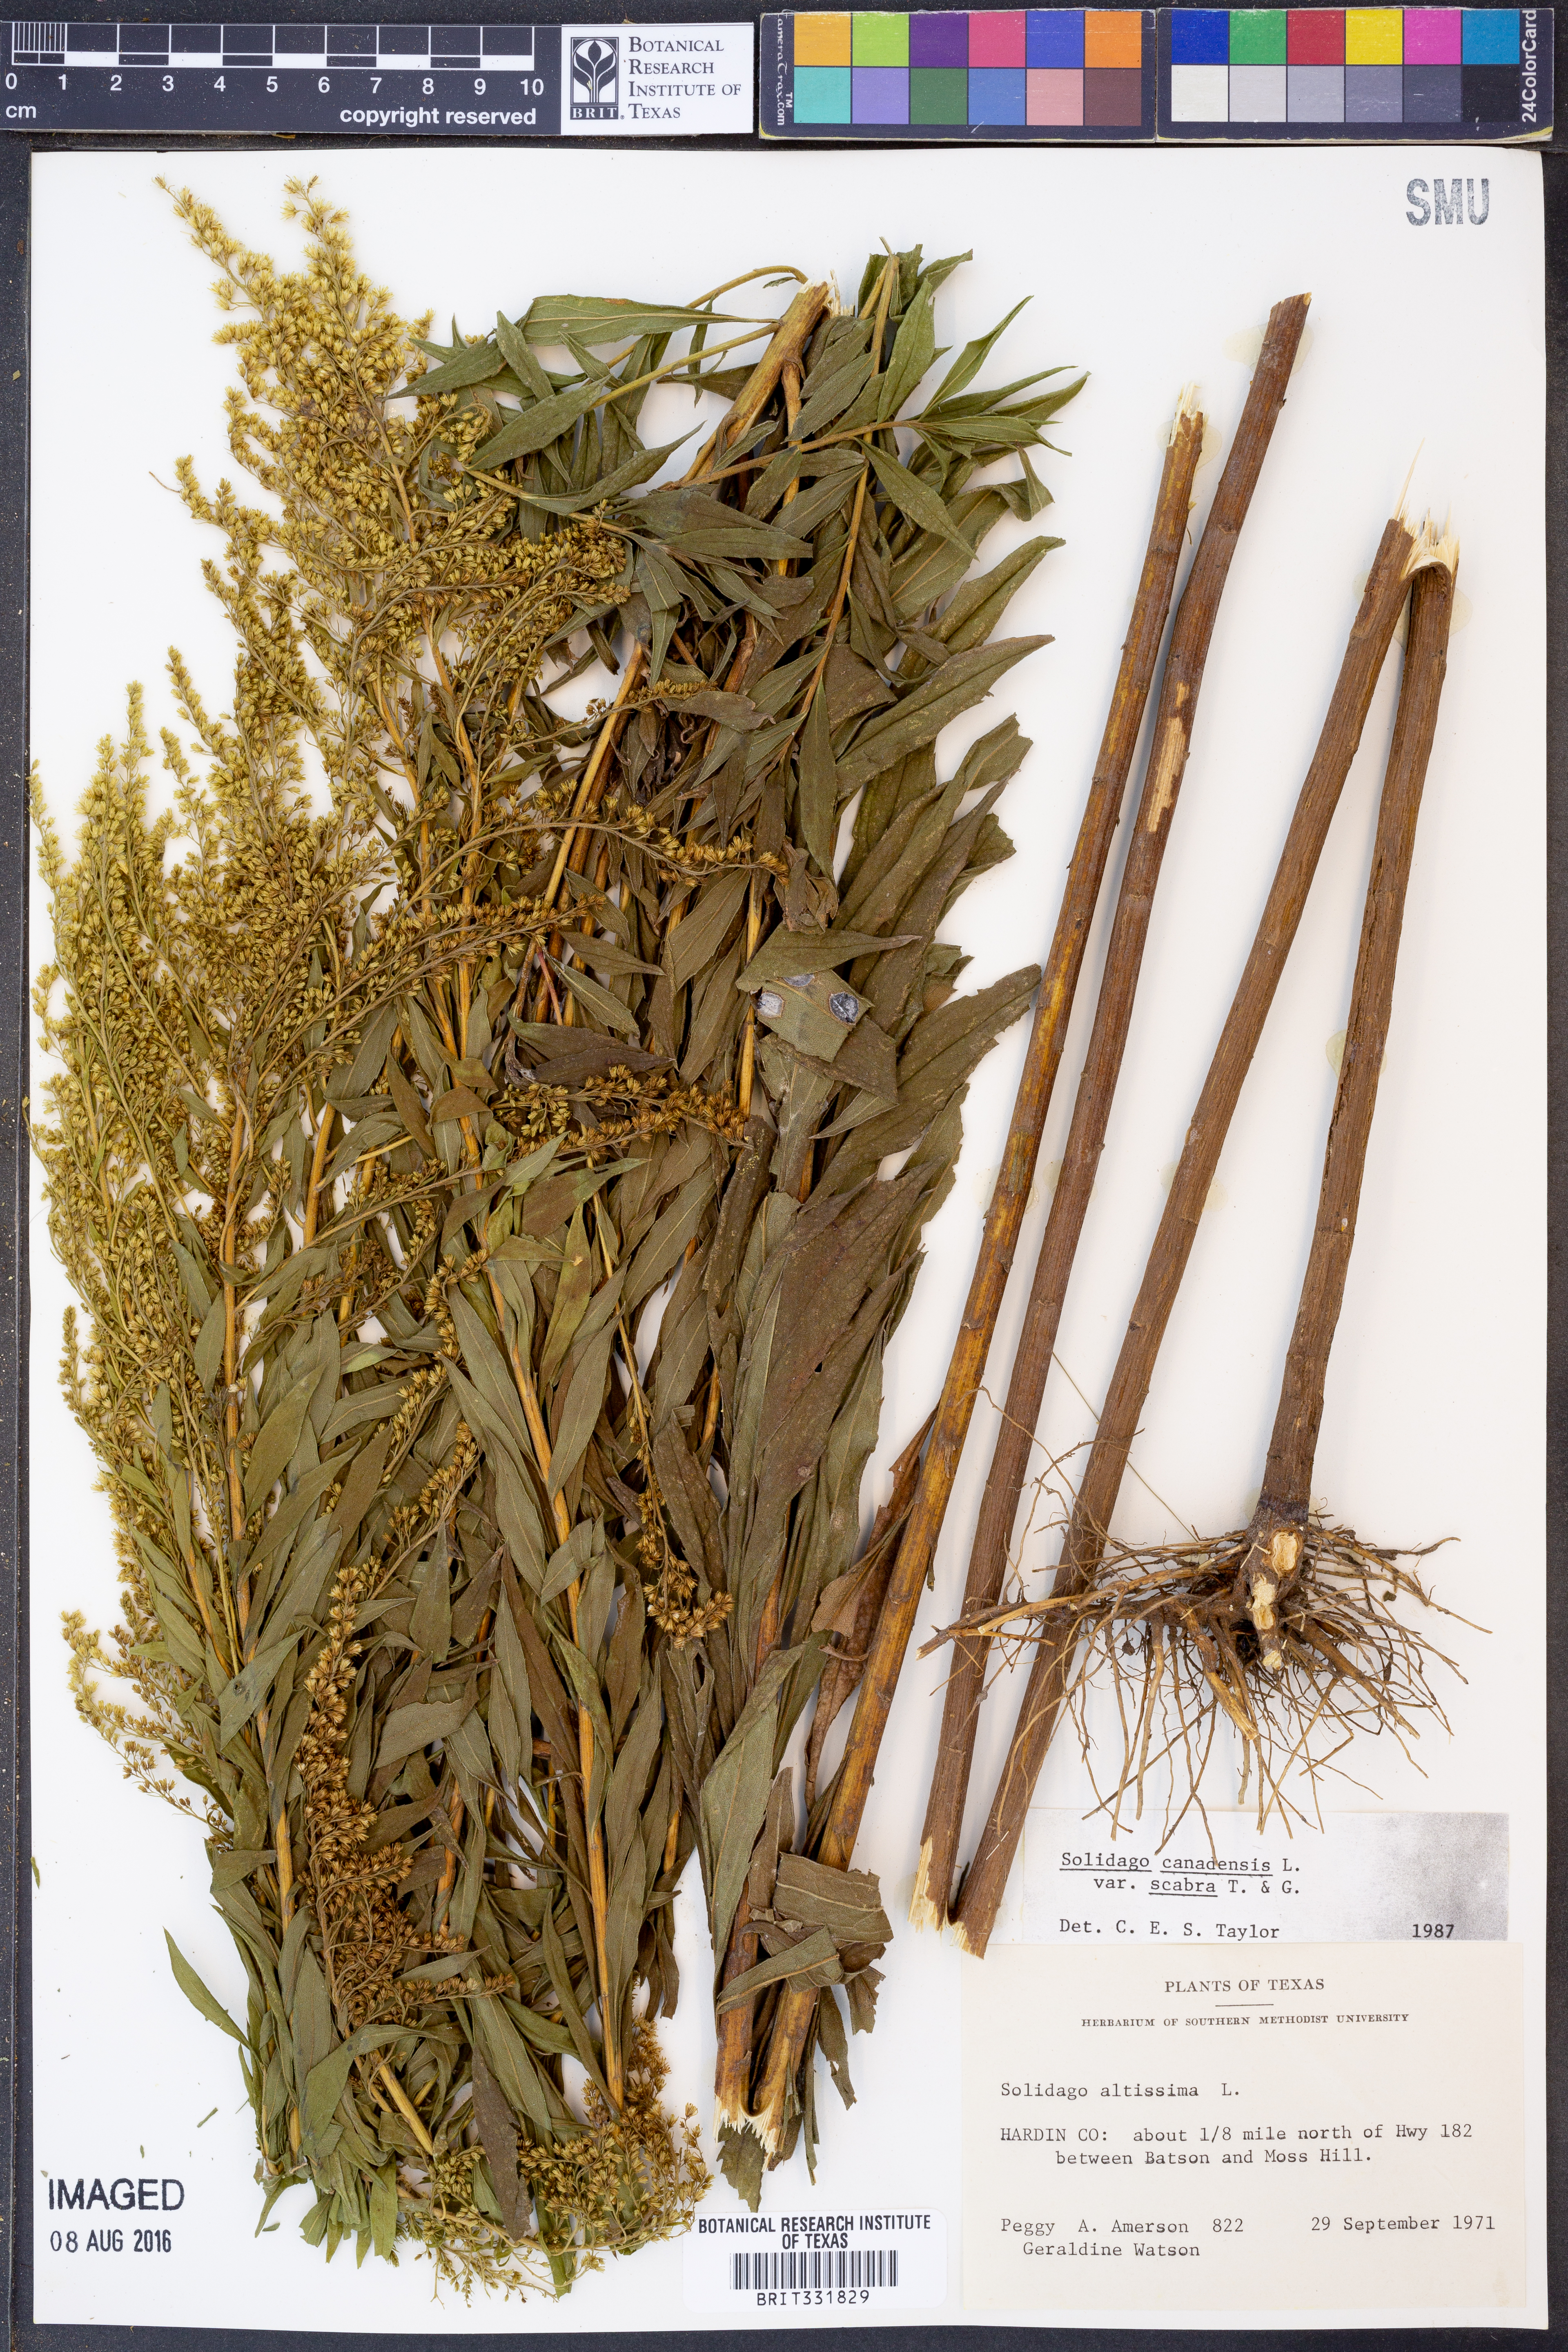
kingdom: Plantae
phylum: Tracheophyta
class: Magnoliopsida
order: Asterales
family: Asteraceae
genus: Solidago
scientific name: Solidago altissima
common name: Late goldenrod
